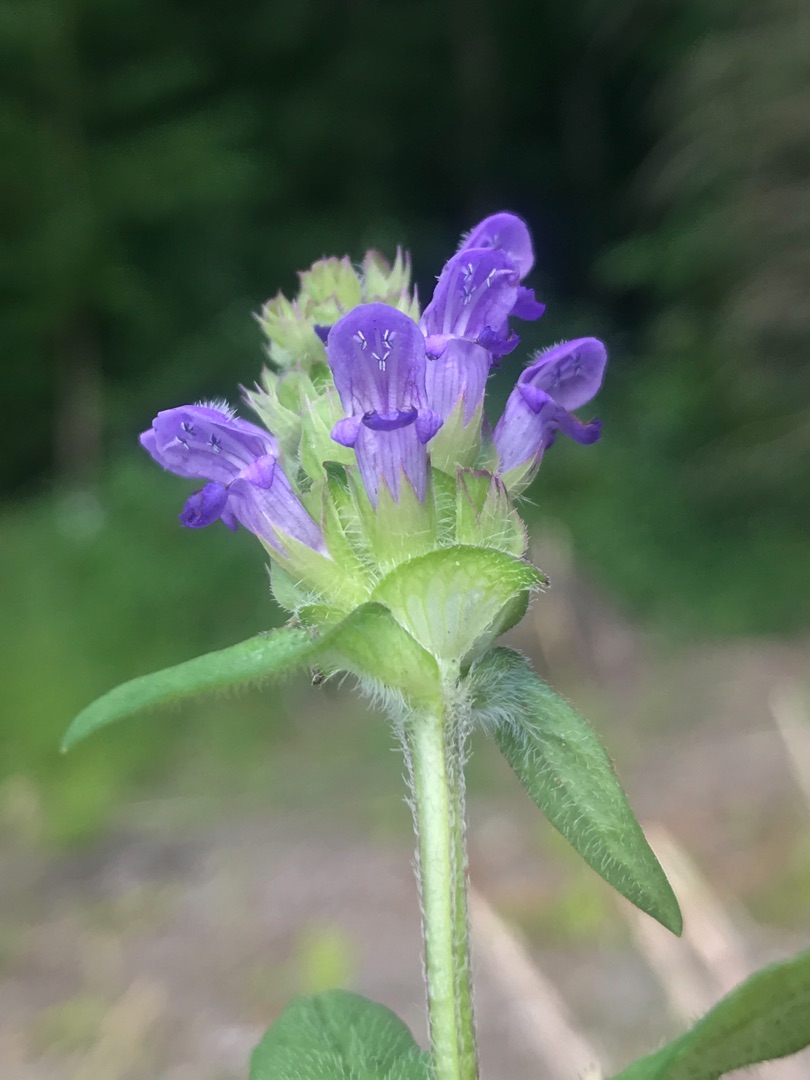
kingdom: Plantae
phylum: Tracheophyta
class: Magnoliopsida
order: Lamiales
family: Lamiaceae
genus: Prunella
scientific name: Prunella vulgaris
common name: Almindelig brunelle
